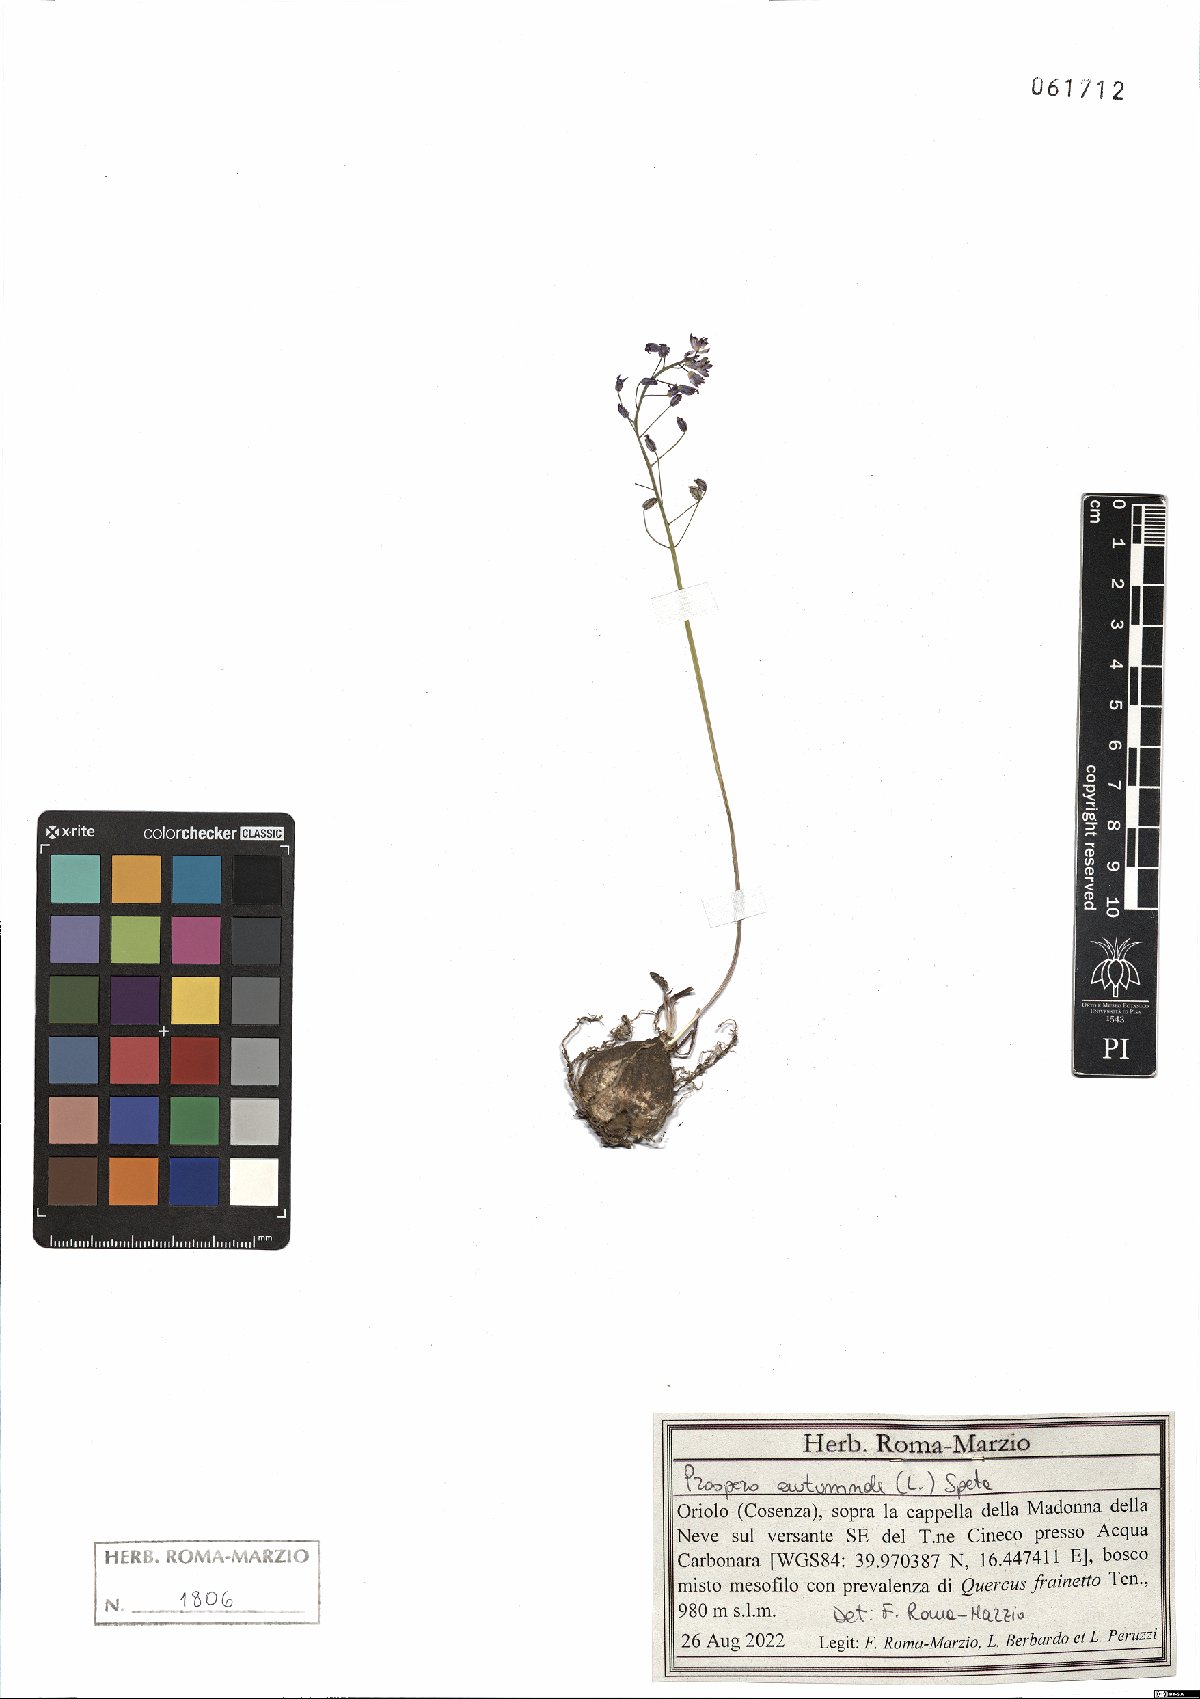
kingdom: Plantae
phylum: Tracheophyta
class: Liliopsida
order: Asparagales
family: Asparagaceae
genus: Prospero
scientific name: Prospero autumnale
